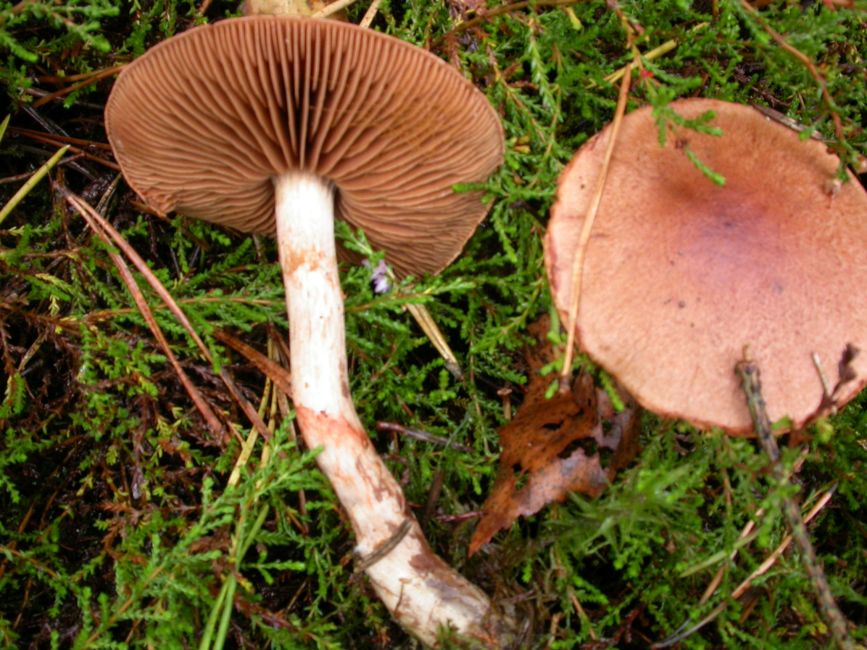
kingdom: Fungi
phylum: Basidiomycota
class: Agaricomycetes
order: Agaricales
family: Cortinariaceae
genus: Cortinarius
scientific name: Cortinarius armillatus
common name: cinnoberbæltet slørhat
